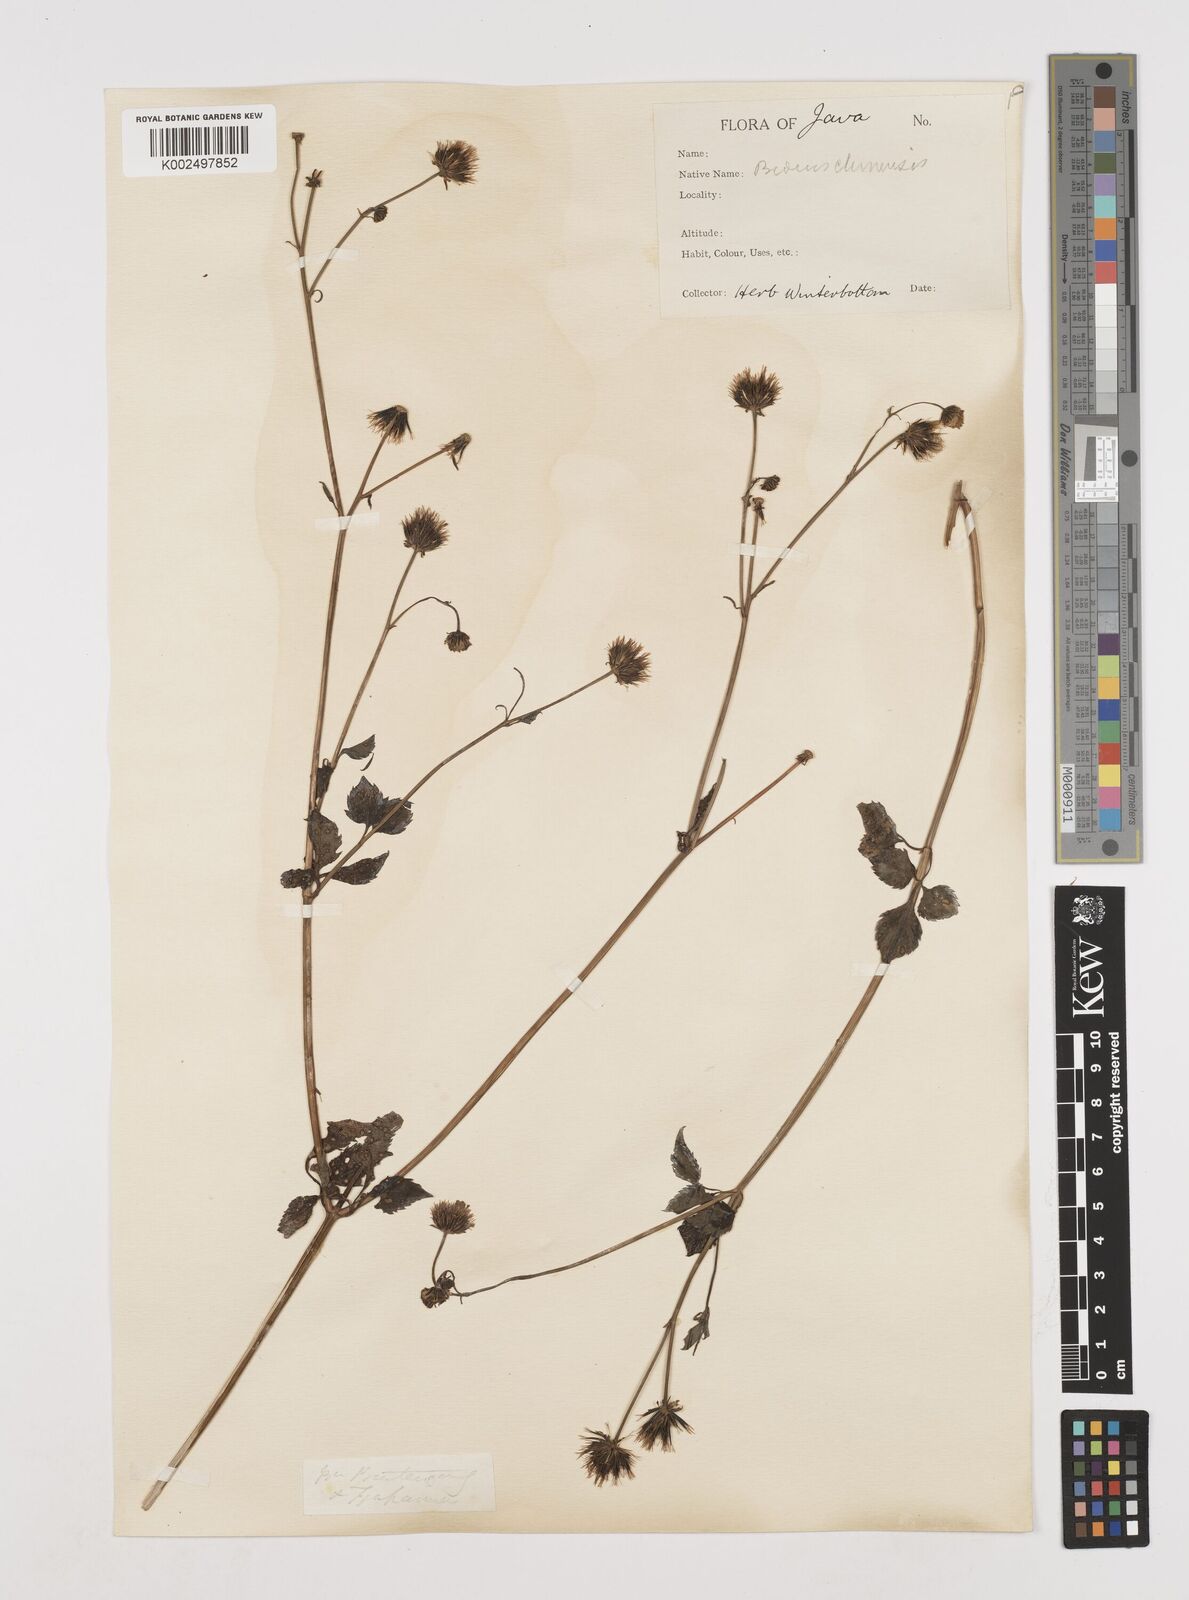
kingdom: Plantae
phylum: Tracheophyta
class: Magnoliopsida
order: Asterales
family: Asteraceae
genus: Bidens
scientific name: Bidens biternata
